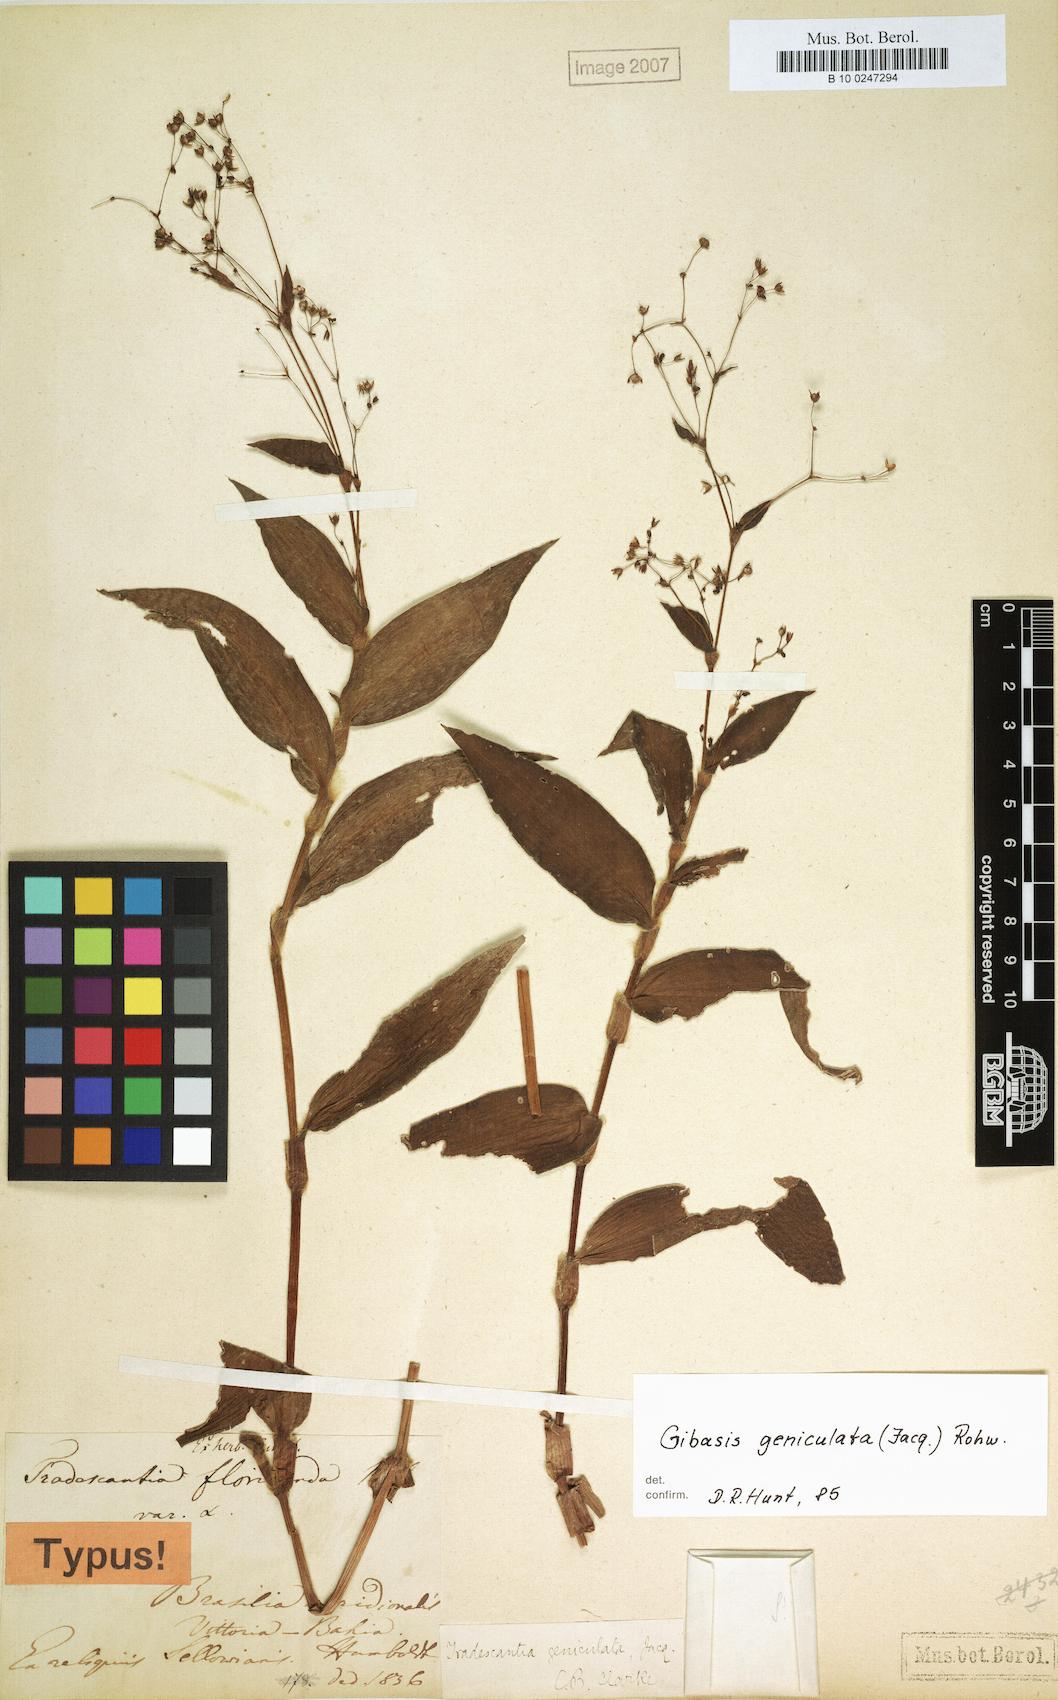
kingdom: Plantae
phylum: Tracheophyta
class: Liliopsida
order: Commelinales
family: Commelinaceae
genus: Gibasis
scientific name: Gibasis geniculata
